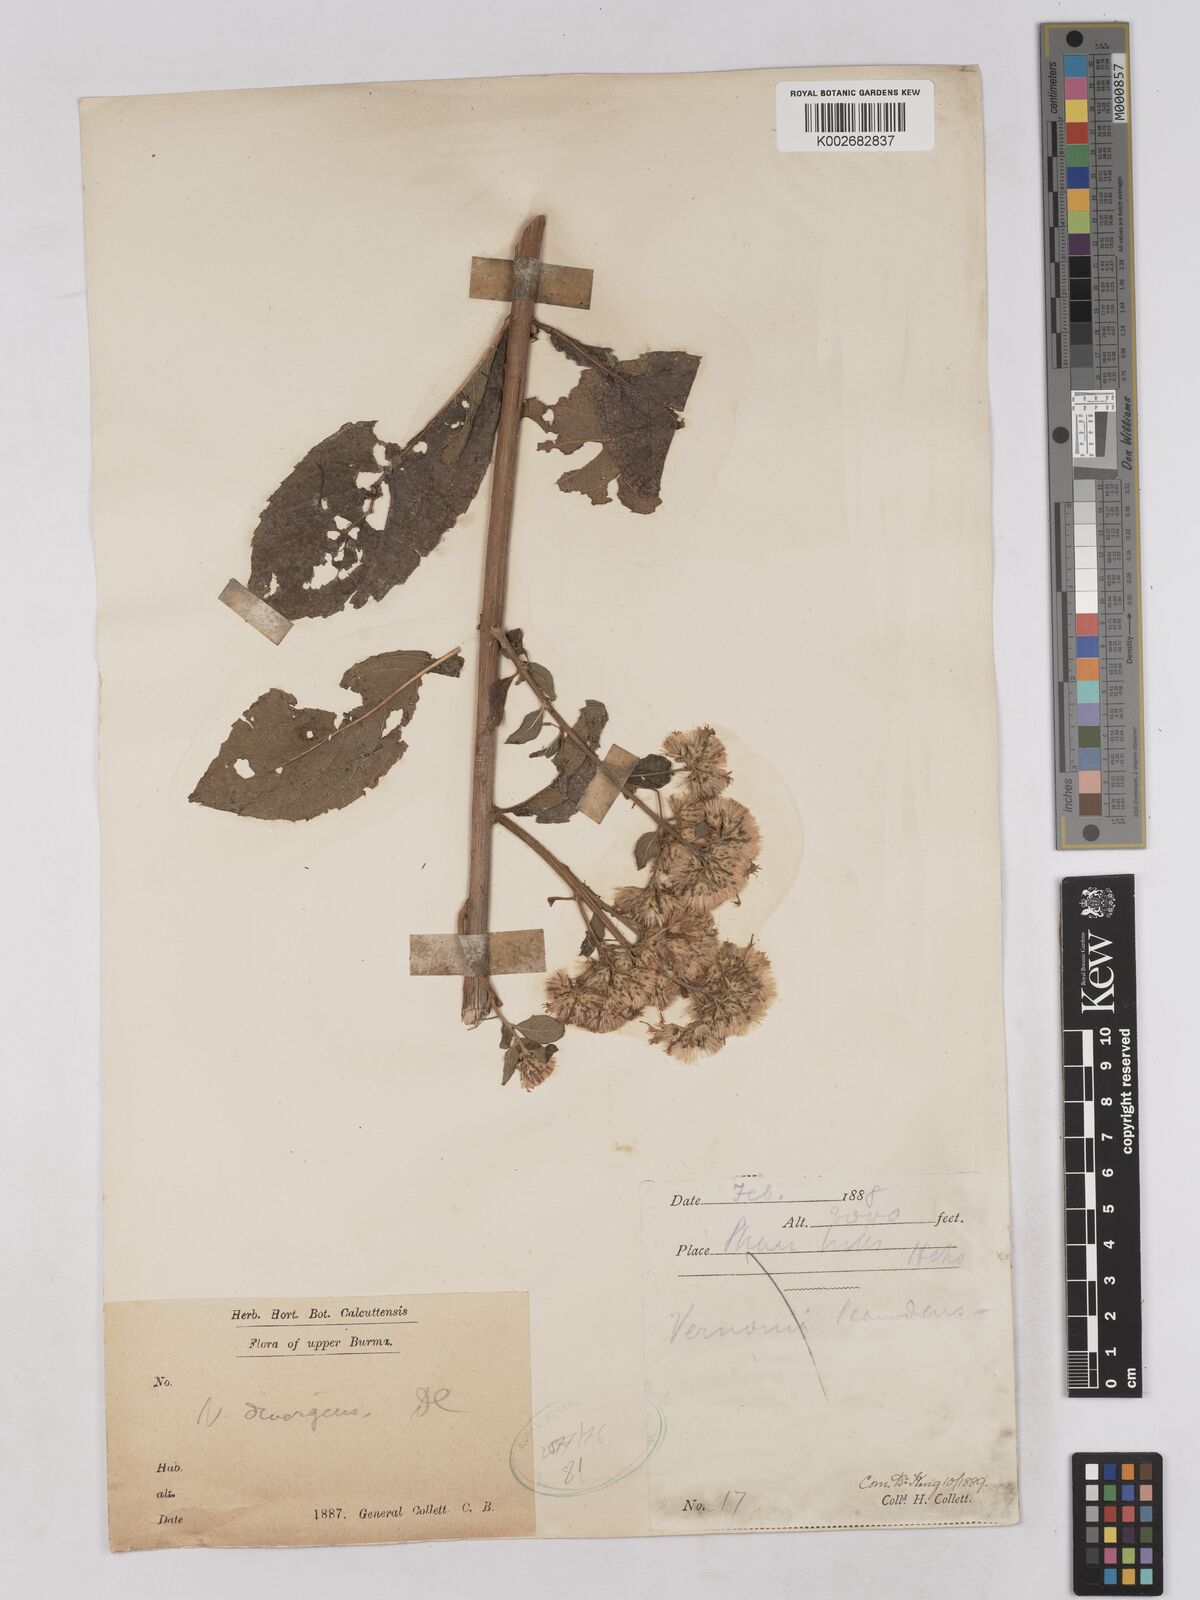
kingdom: Plantae
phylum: Tracheophyta
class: Magnoliopsida
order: Asterales
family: Asteraceae
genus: Acilepis
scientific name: Acilepis divergens
